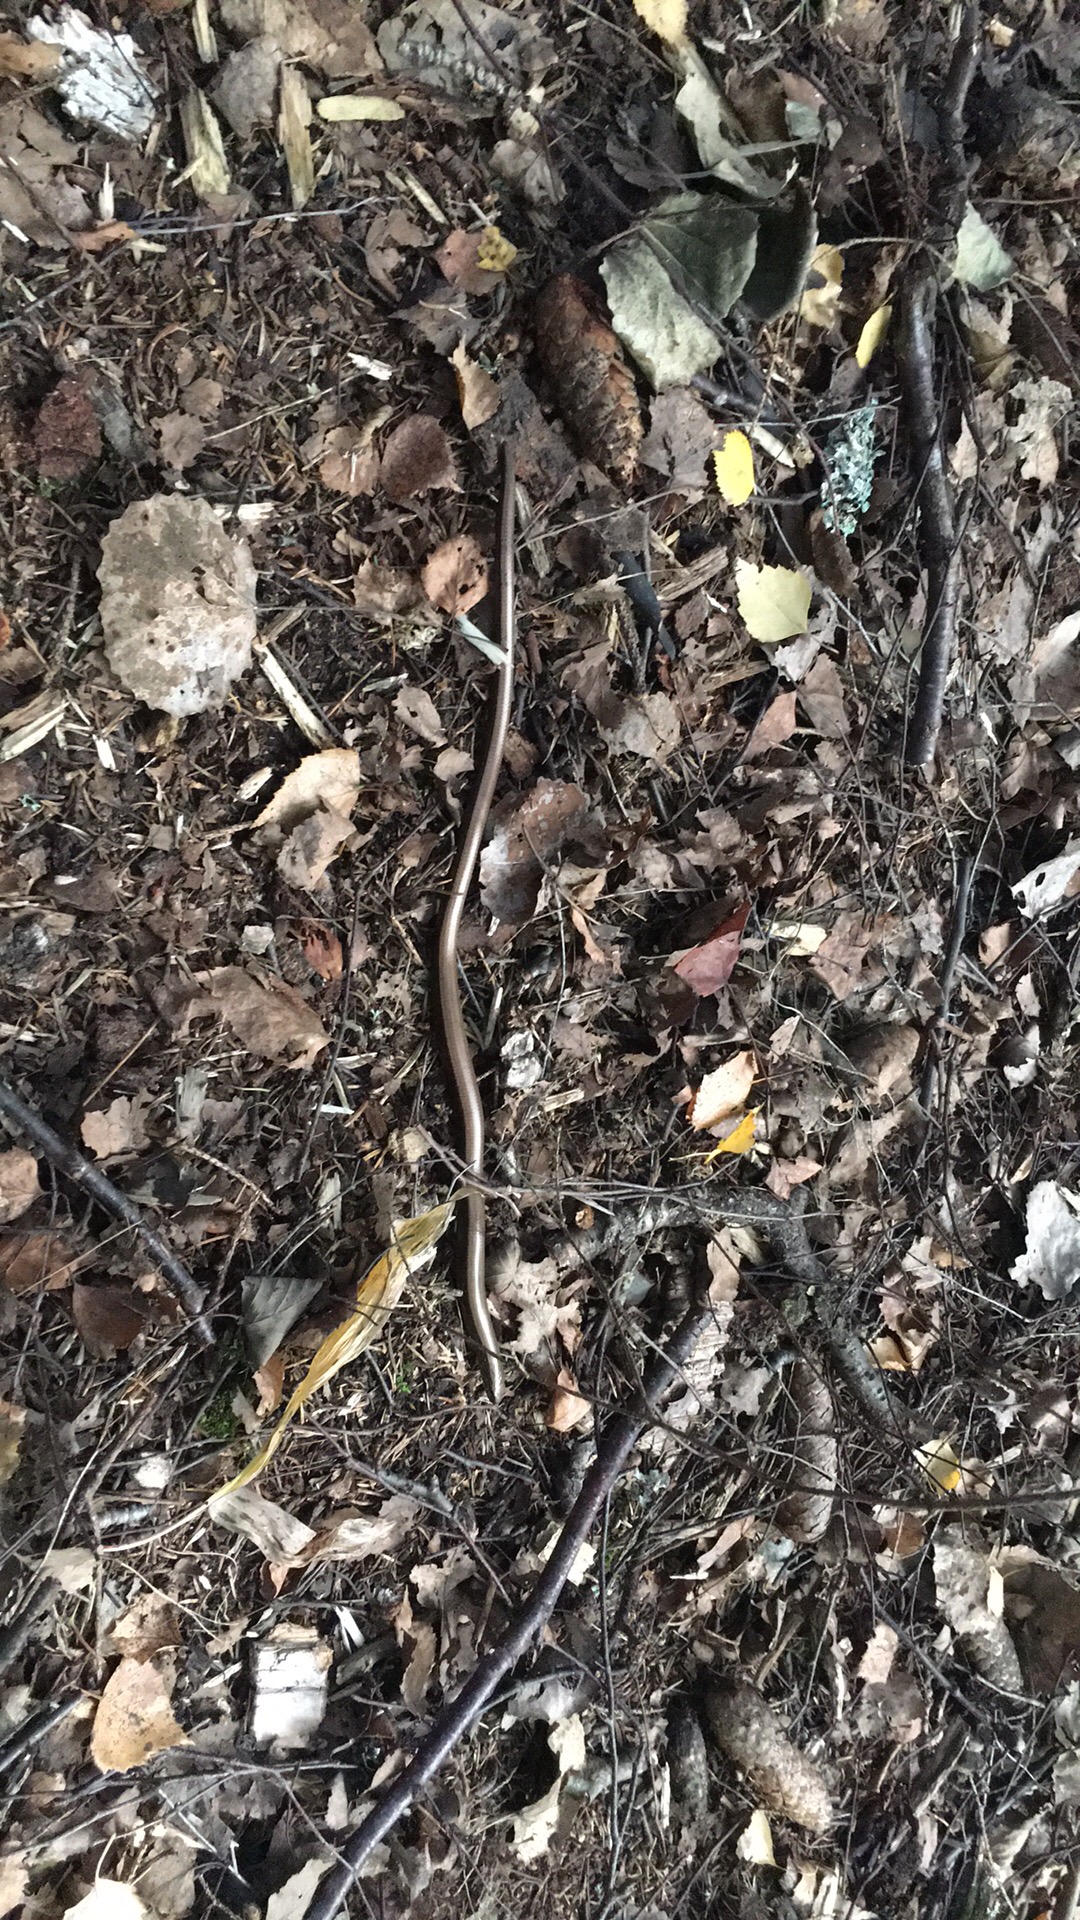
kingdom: Animalia
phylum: Chordata
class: Squamata
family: Anguidae
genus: Anguis
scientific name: Anguis colchica
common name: Slow worm
